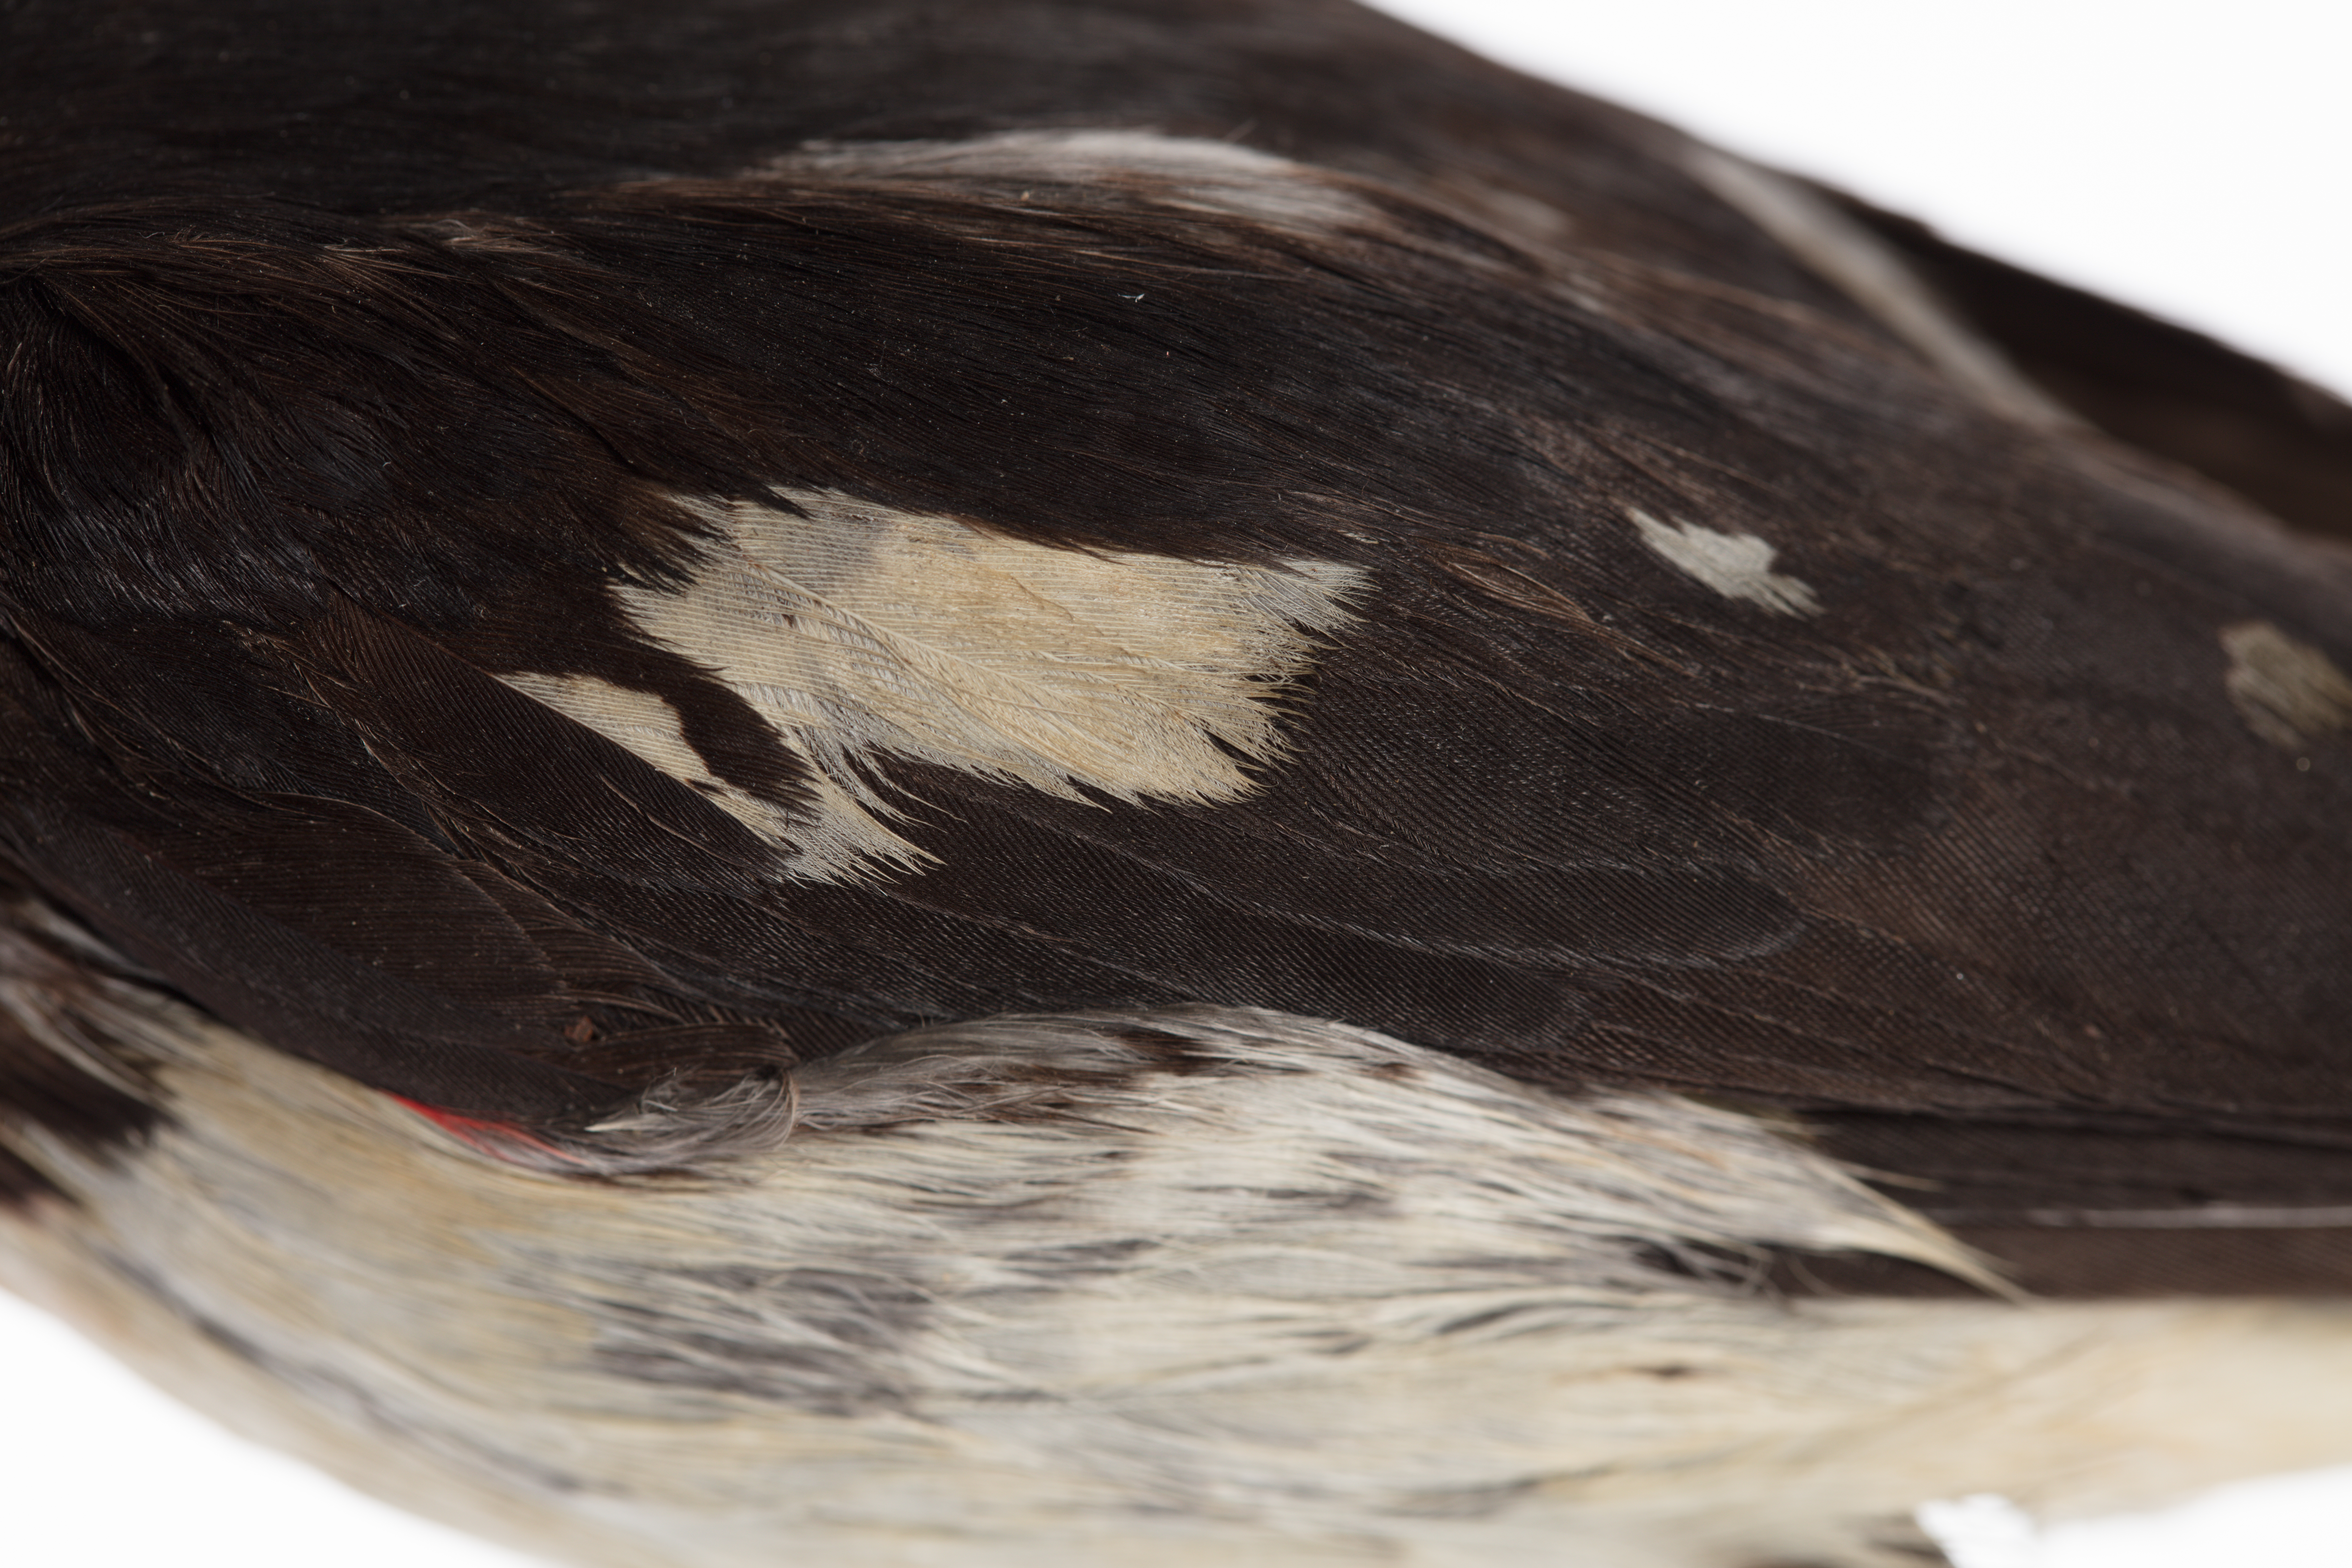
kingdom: Animalia
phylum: Chordata
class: Aves
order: Passeriformes
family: Cardinalidae
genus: Pheucticus
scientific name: Pheucticus ludovicianus
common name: Rose-breasted grosbeak
